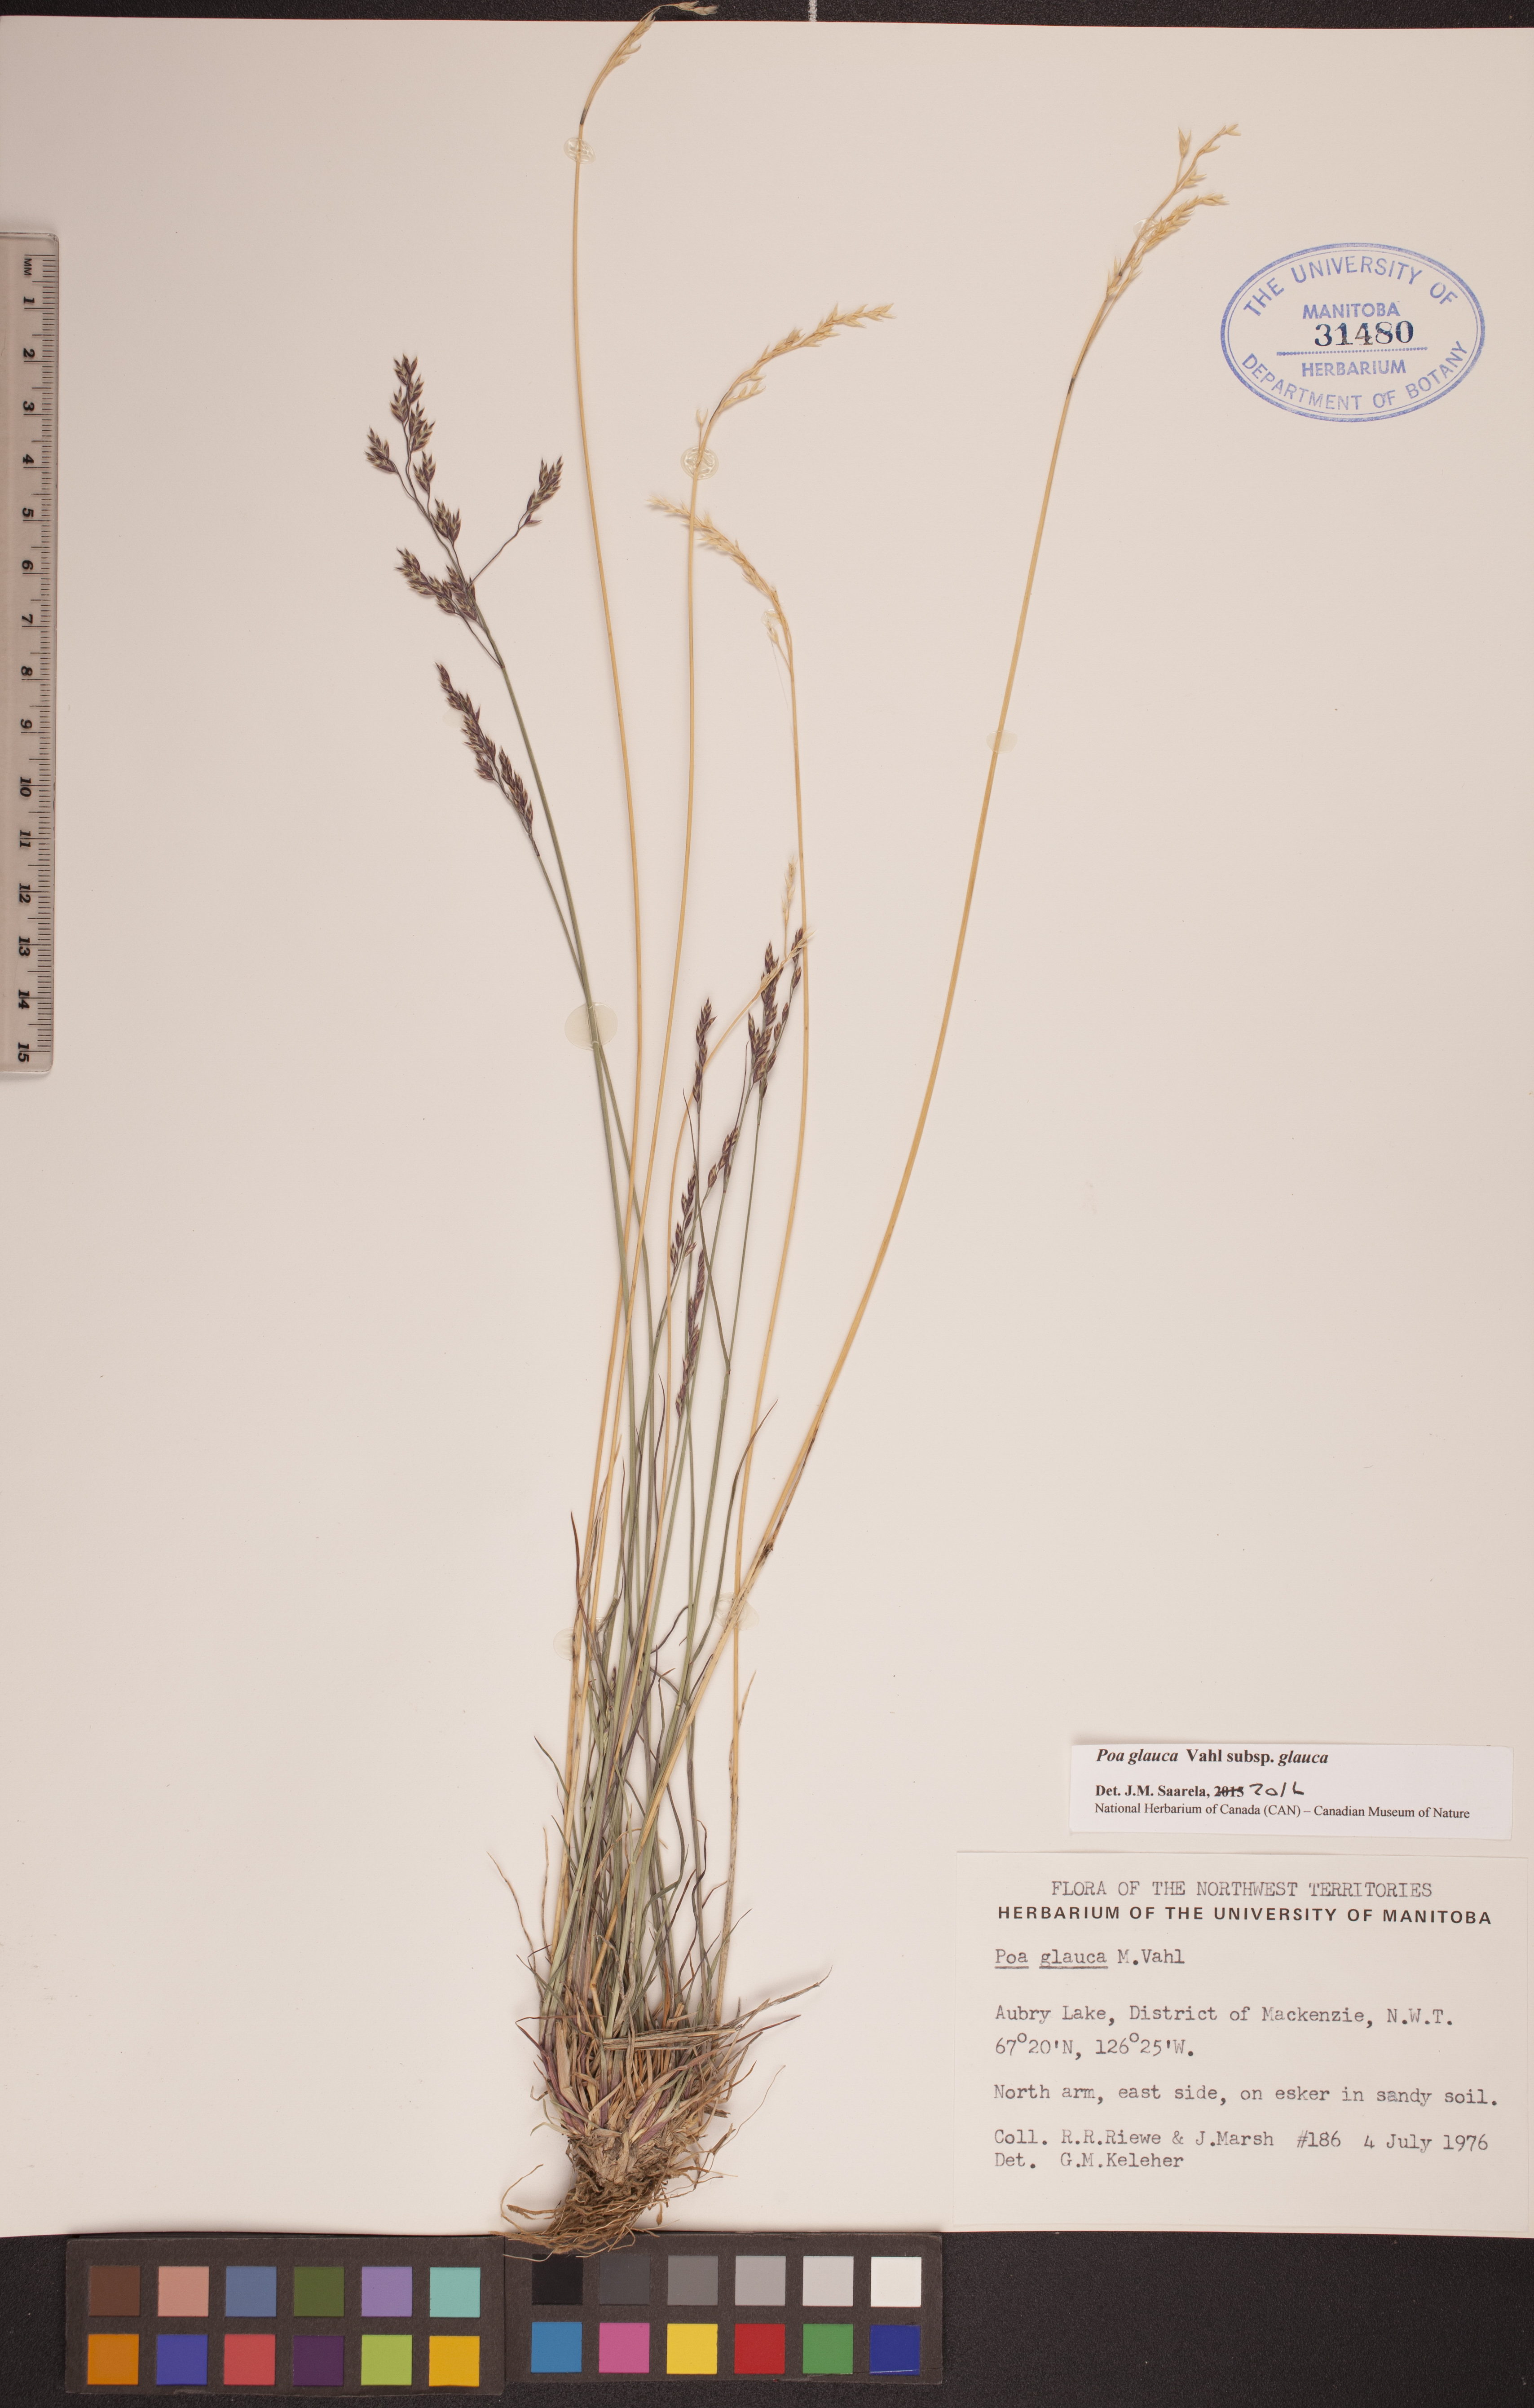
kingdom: Plantae
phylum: Tracheophyta
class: Liliopsida
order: Poales
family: Poaceae
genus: Poa
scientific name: Poa glauca
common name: Glaucous bluegrass
